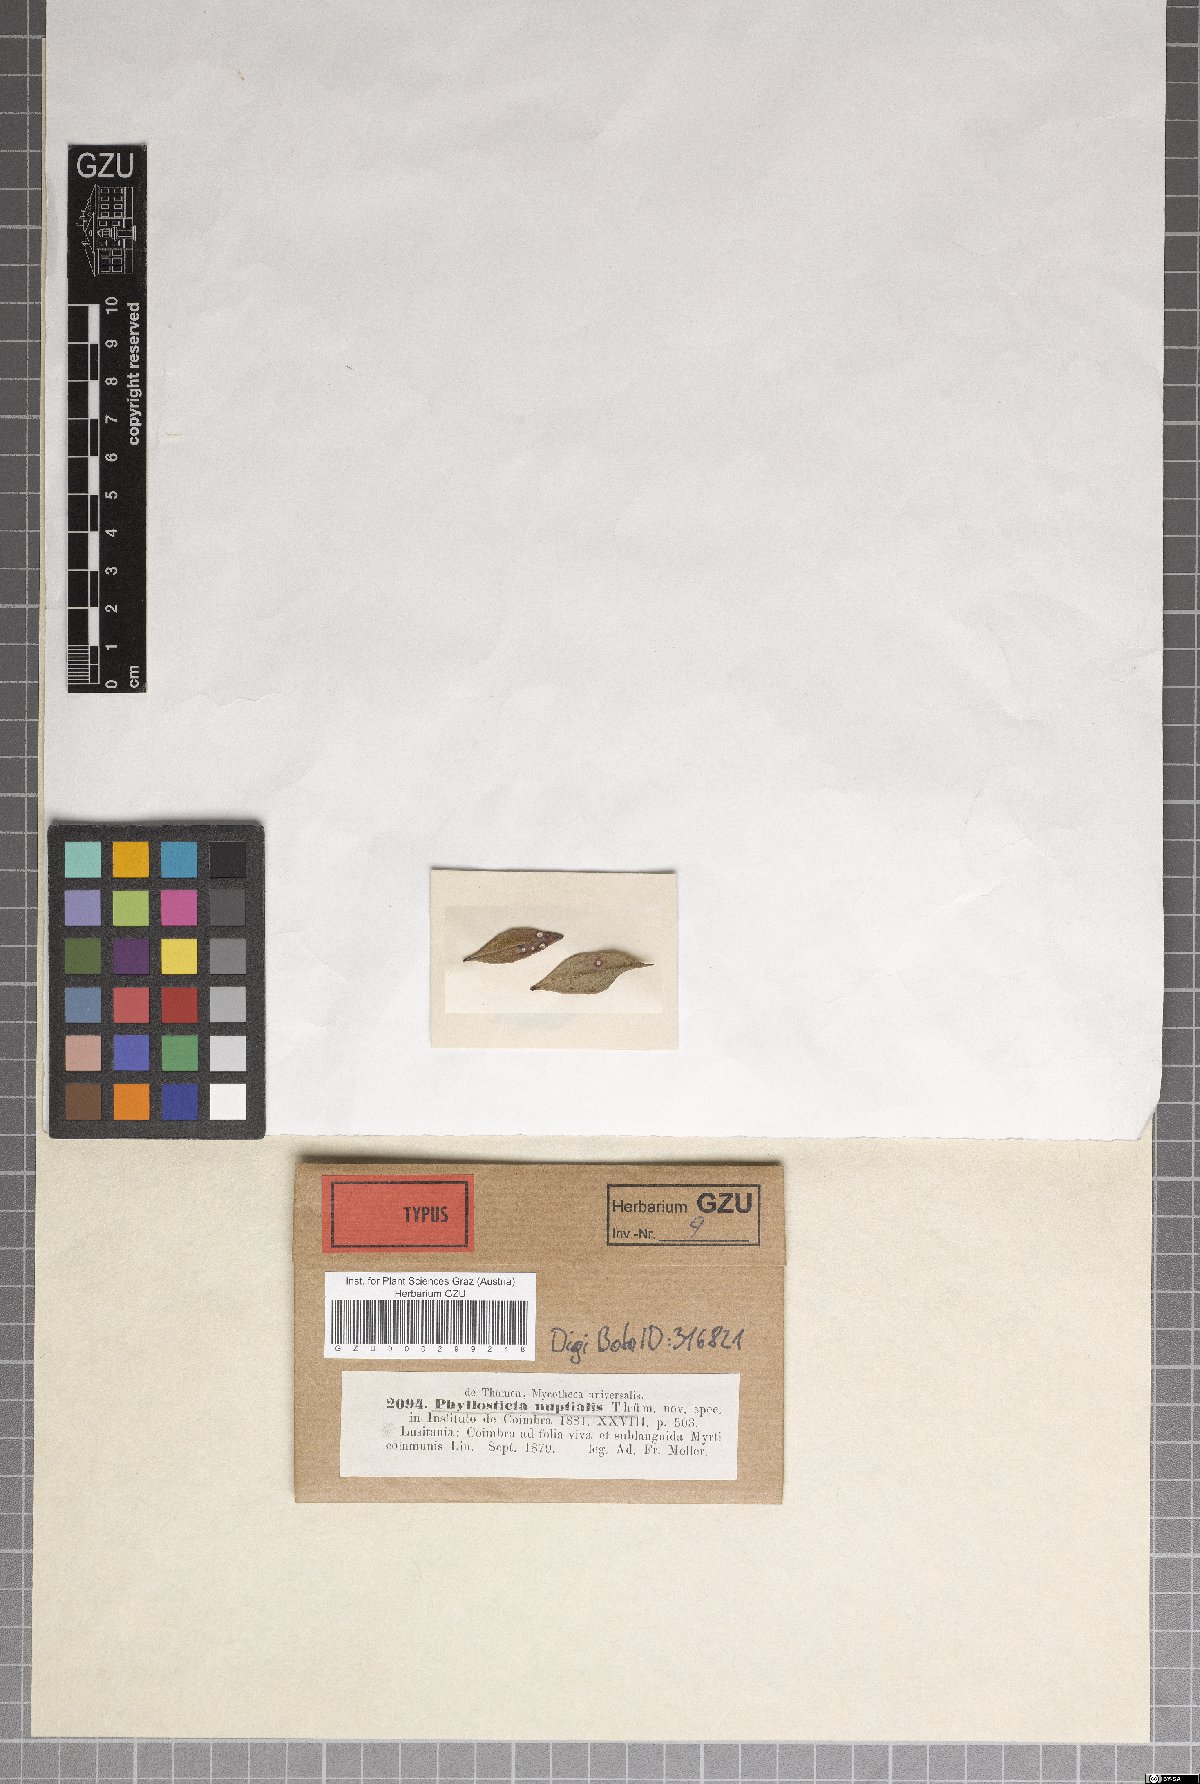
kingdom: Fungi
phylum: Ascomycota
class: Dothideomycetes
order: Botryosphaeriales
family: Phyllostictaceae
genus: Phyllosticta
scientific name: Phyllosticta nuptialis
